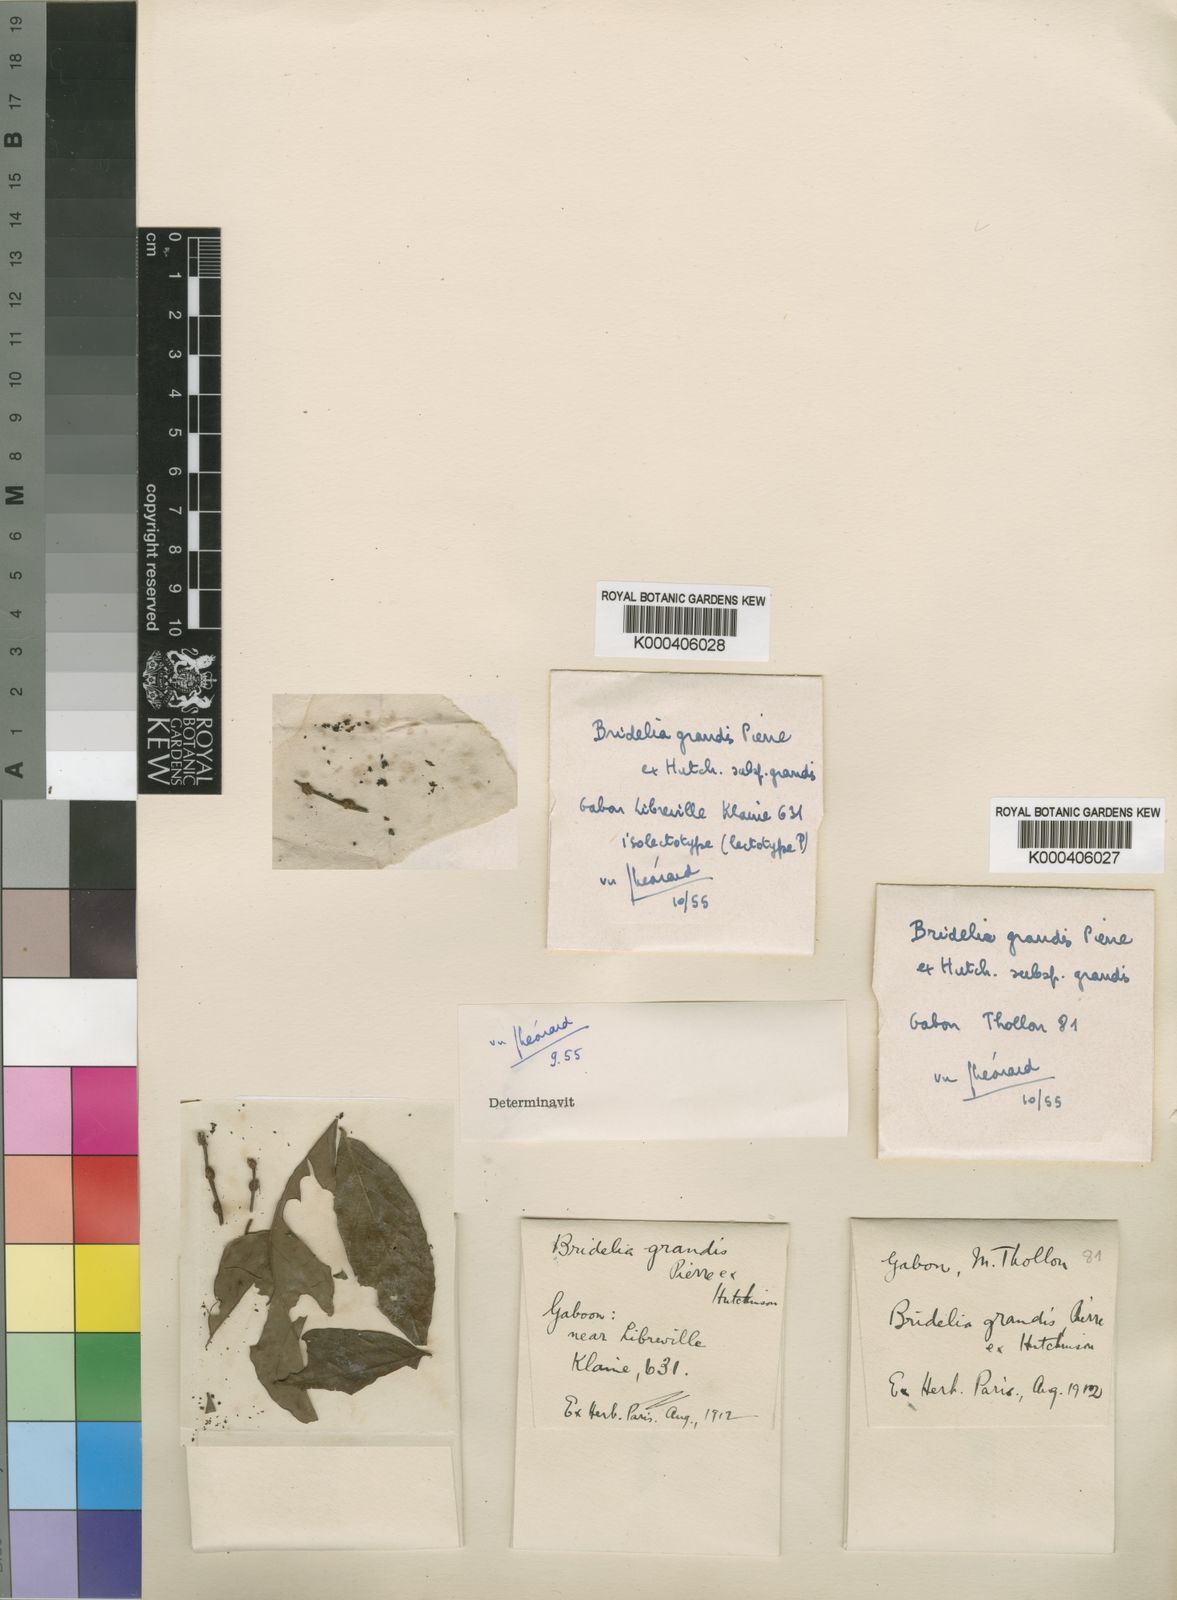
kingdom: Plantae
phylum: Tracheophyta
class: Magnoliopsida
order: Malpighiales
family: Phyllanthaceae
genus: Bridelia
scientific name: Bridelia grandis
